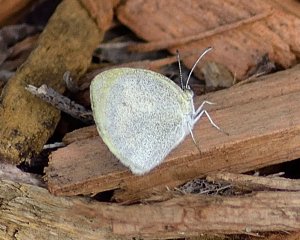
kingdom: Animalia
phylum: Arthropoda
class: Insecta
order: Lepidoptera
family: Pieridae
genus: Eurema
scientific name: Eurema daira
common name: Barred Yellow
